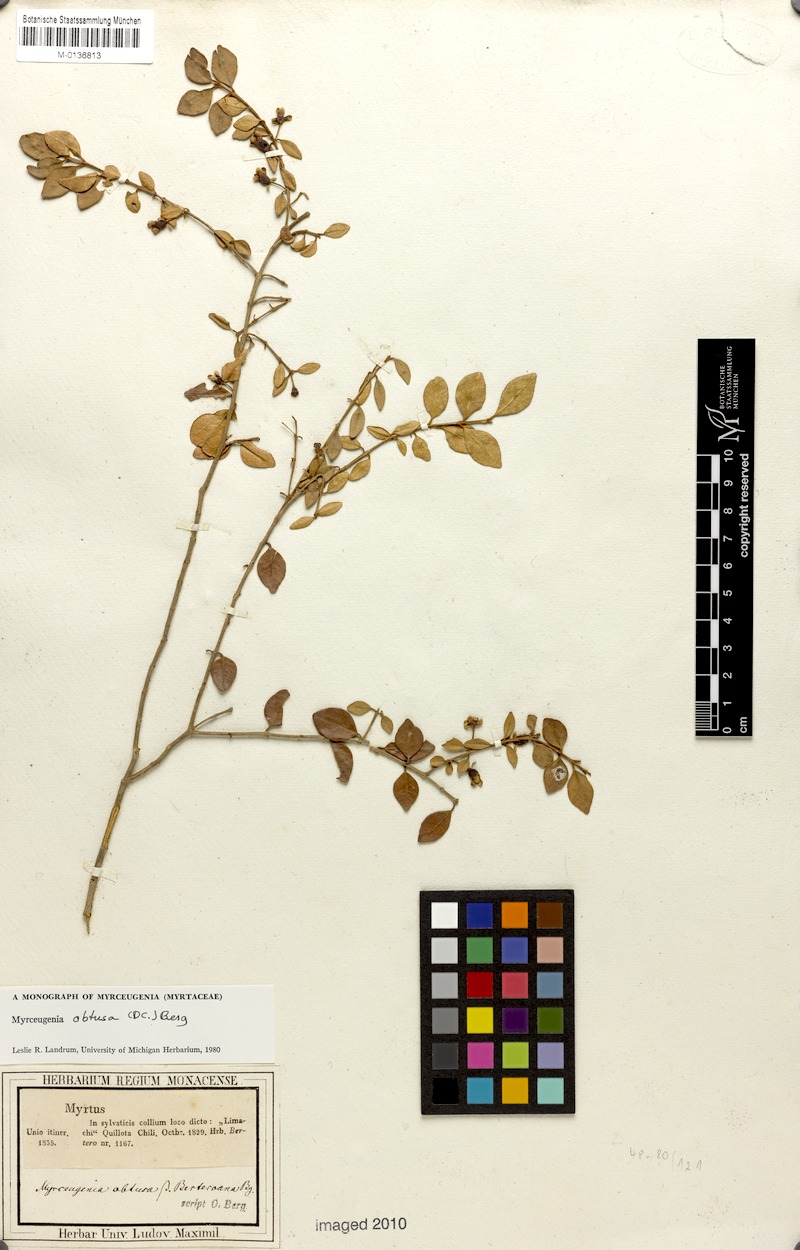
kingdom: Plantae
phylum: Tracheophyta
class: Magnoliopsida
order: Myrtales
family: Myrtaceae
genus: Myrceugenia
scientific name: Myrceugenia obtusa
